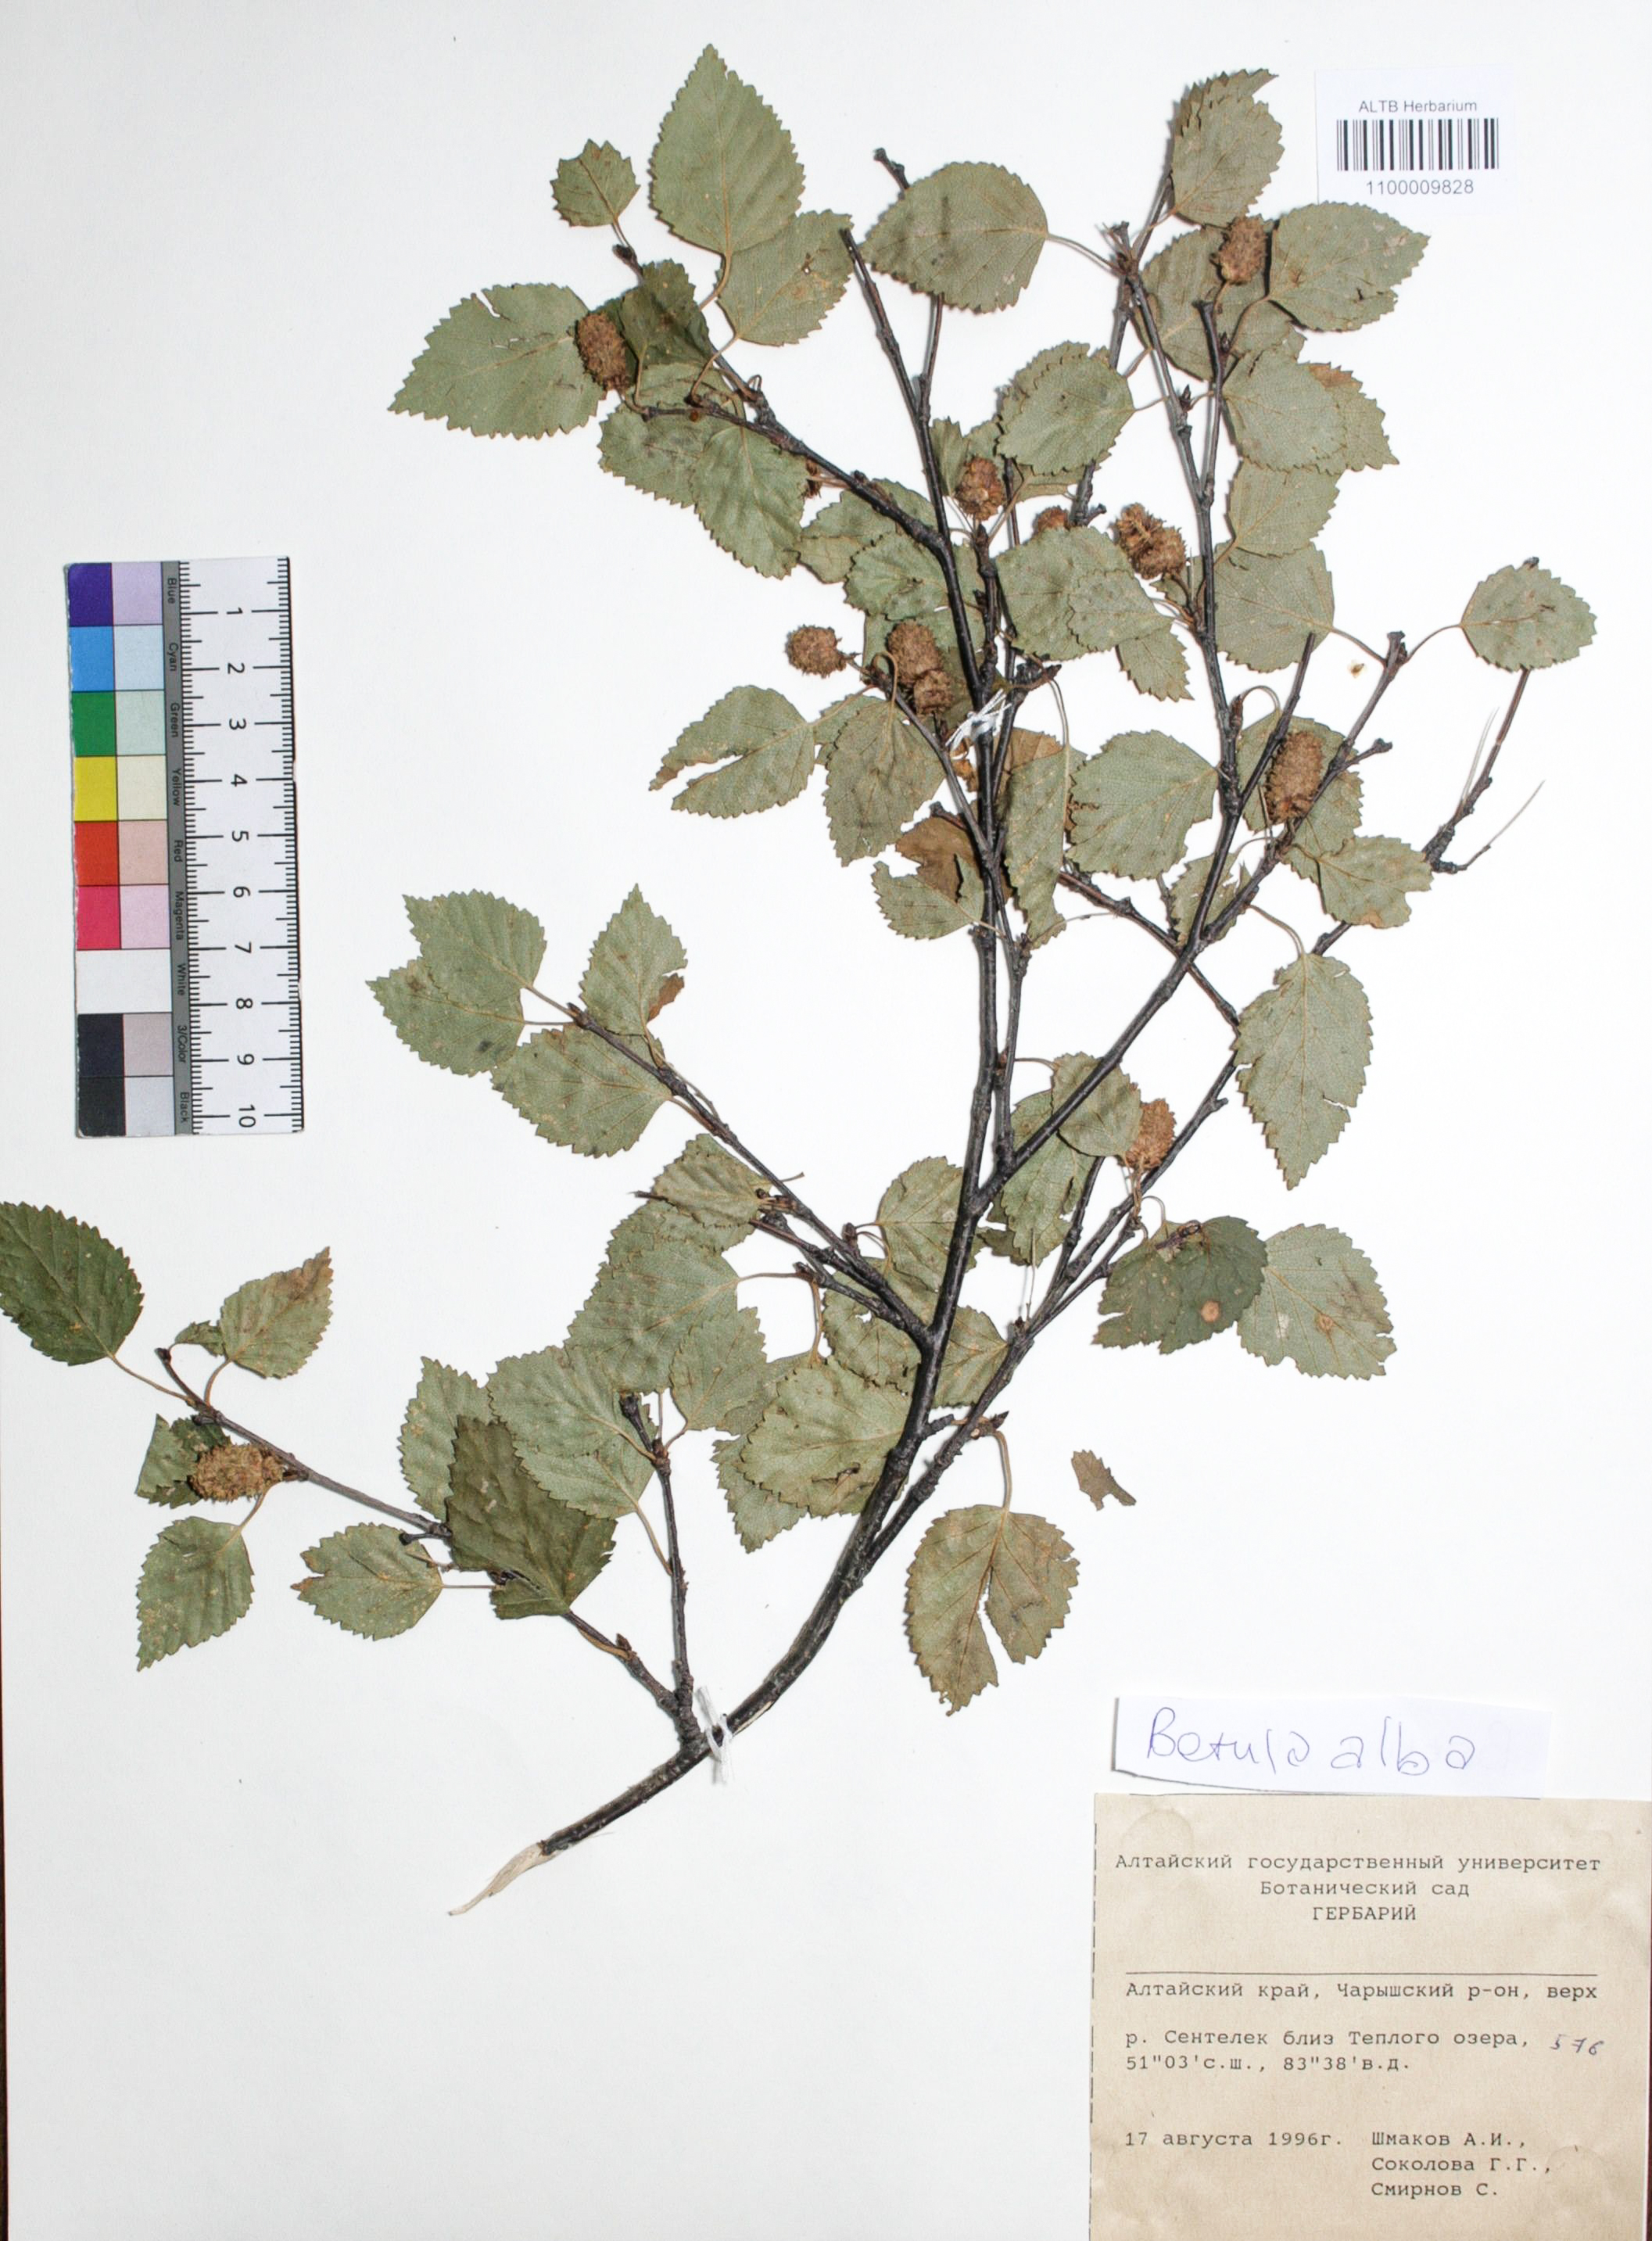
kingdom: Plantae
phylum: Tracheophyta
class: Magnoliopsida
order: Fagales
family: Betulaceae
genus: Betula
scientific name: Betula pubescens
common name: Downy birch
